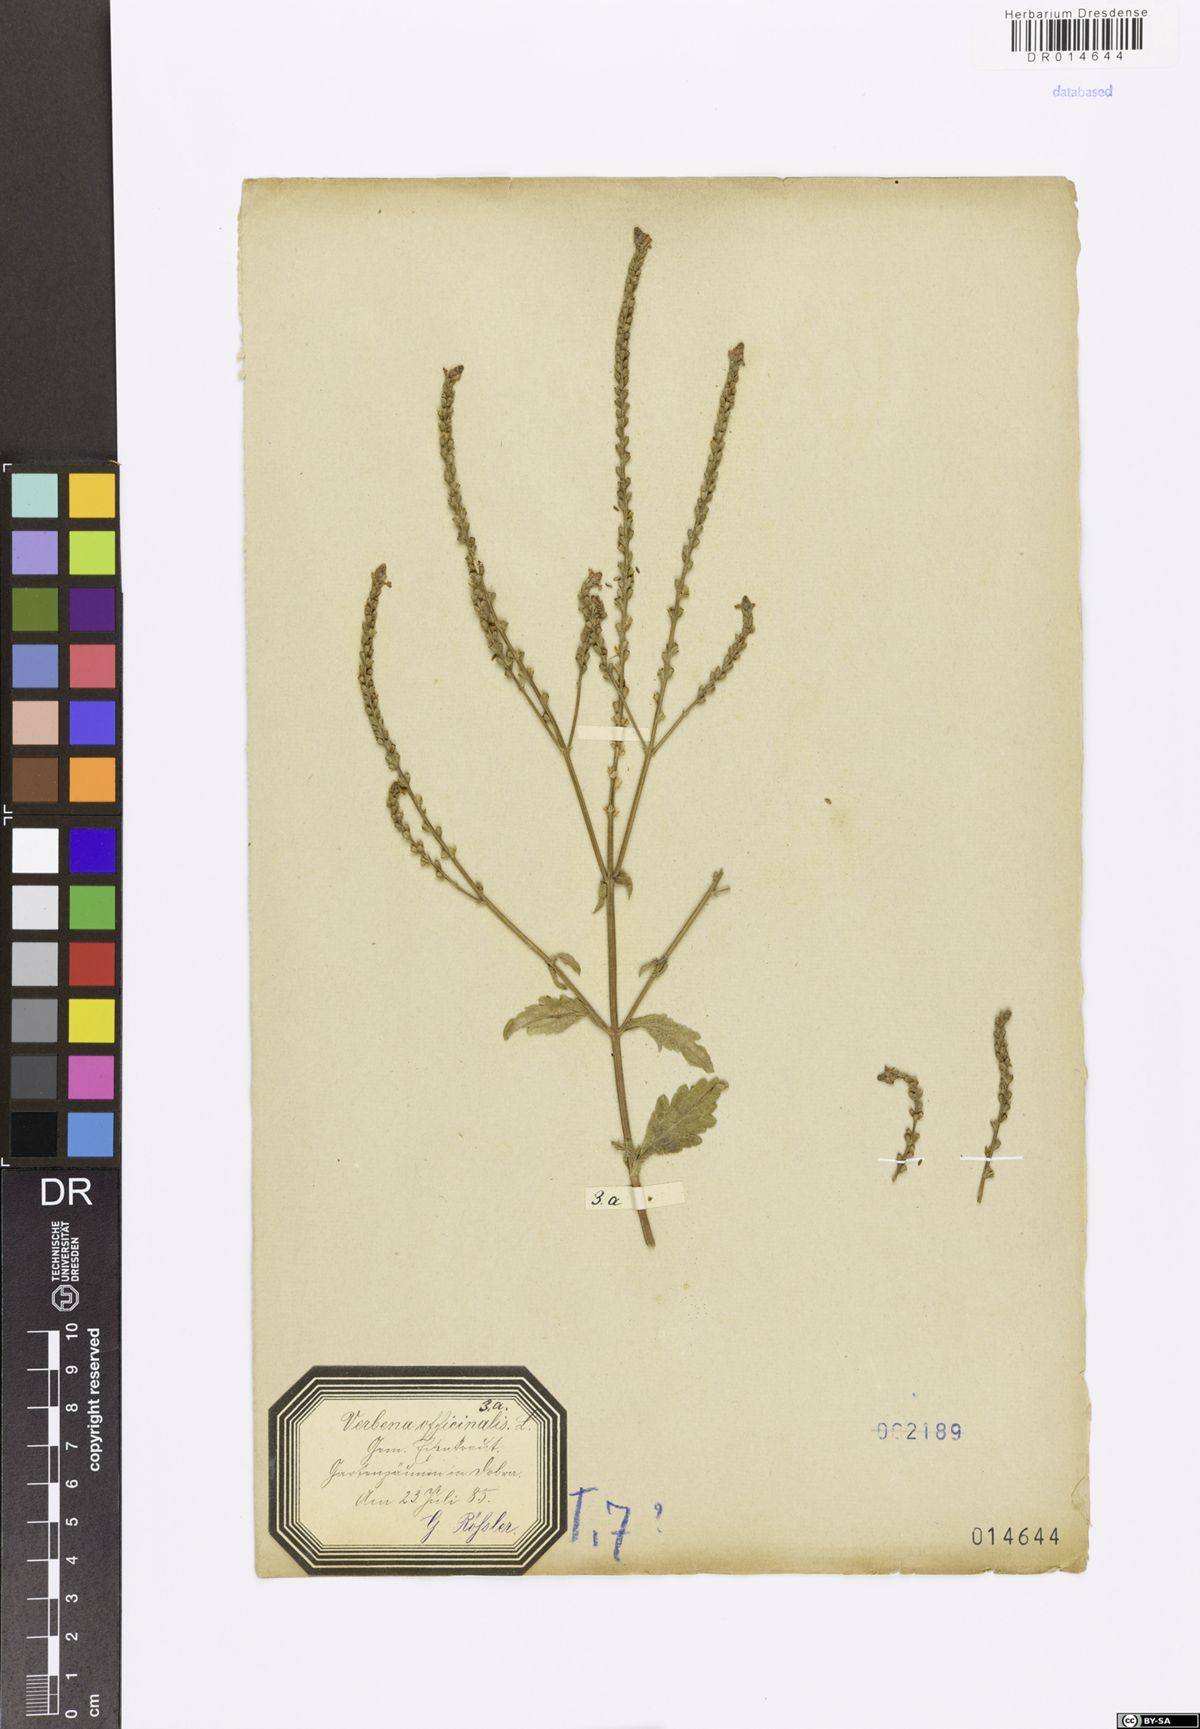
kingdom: Plantae
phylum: Tracheophyta
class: Magnoliopsida
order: Lamiales
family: Verbenaceae
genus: Verbena
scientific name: Verbena officinalis
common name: Vervain
